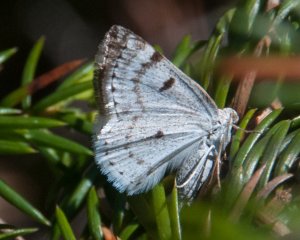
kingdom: Animalia
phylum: Arthropoda
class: Insecta
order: Lepidoptera
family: Lycaenidae
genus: Celastrina
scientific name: Celastrina lucia
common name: Northern Spring Azure
